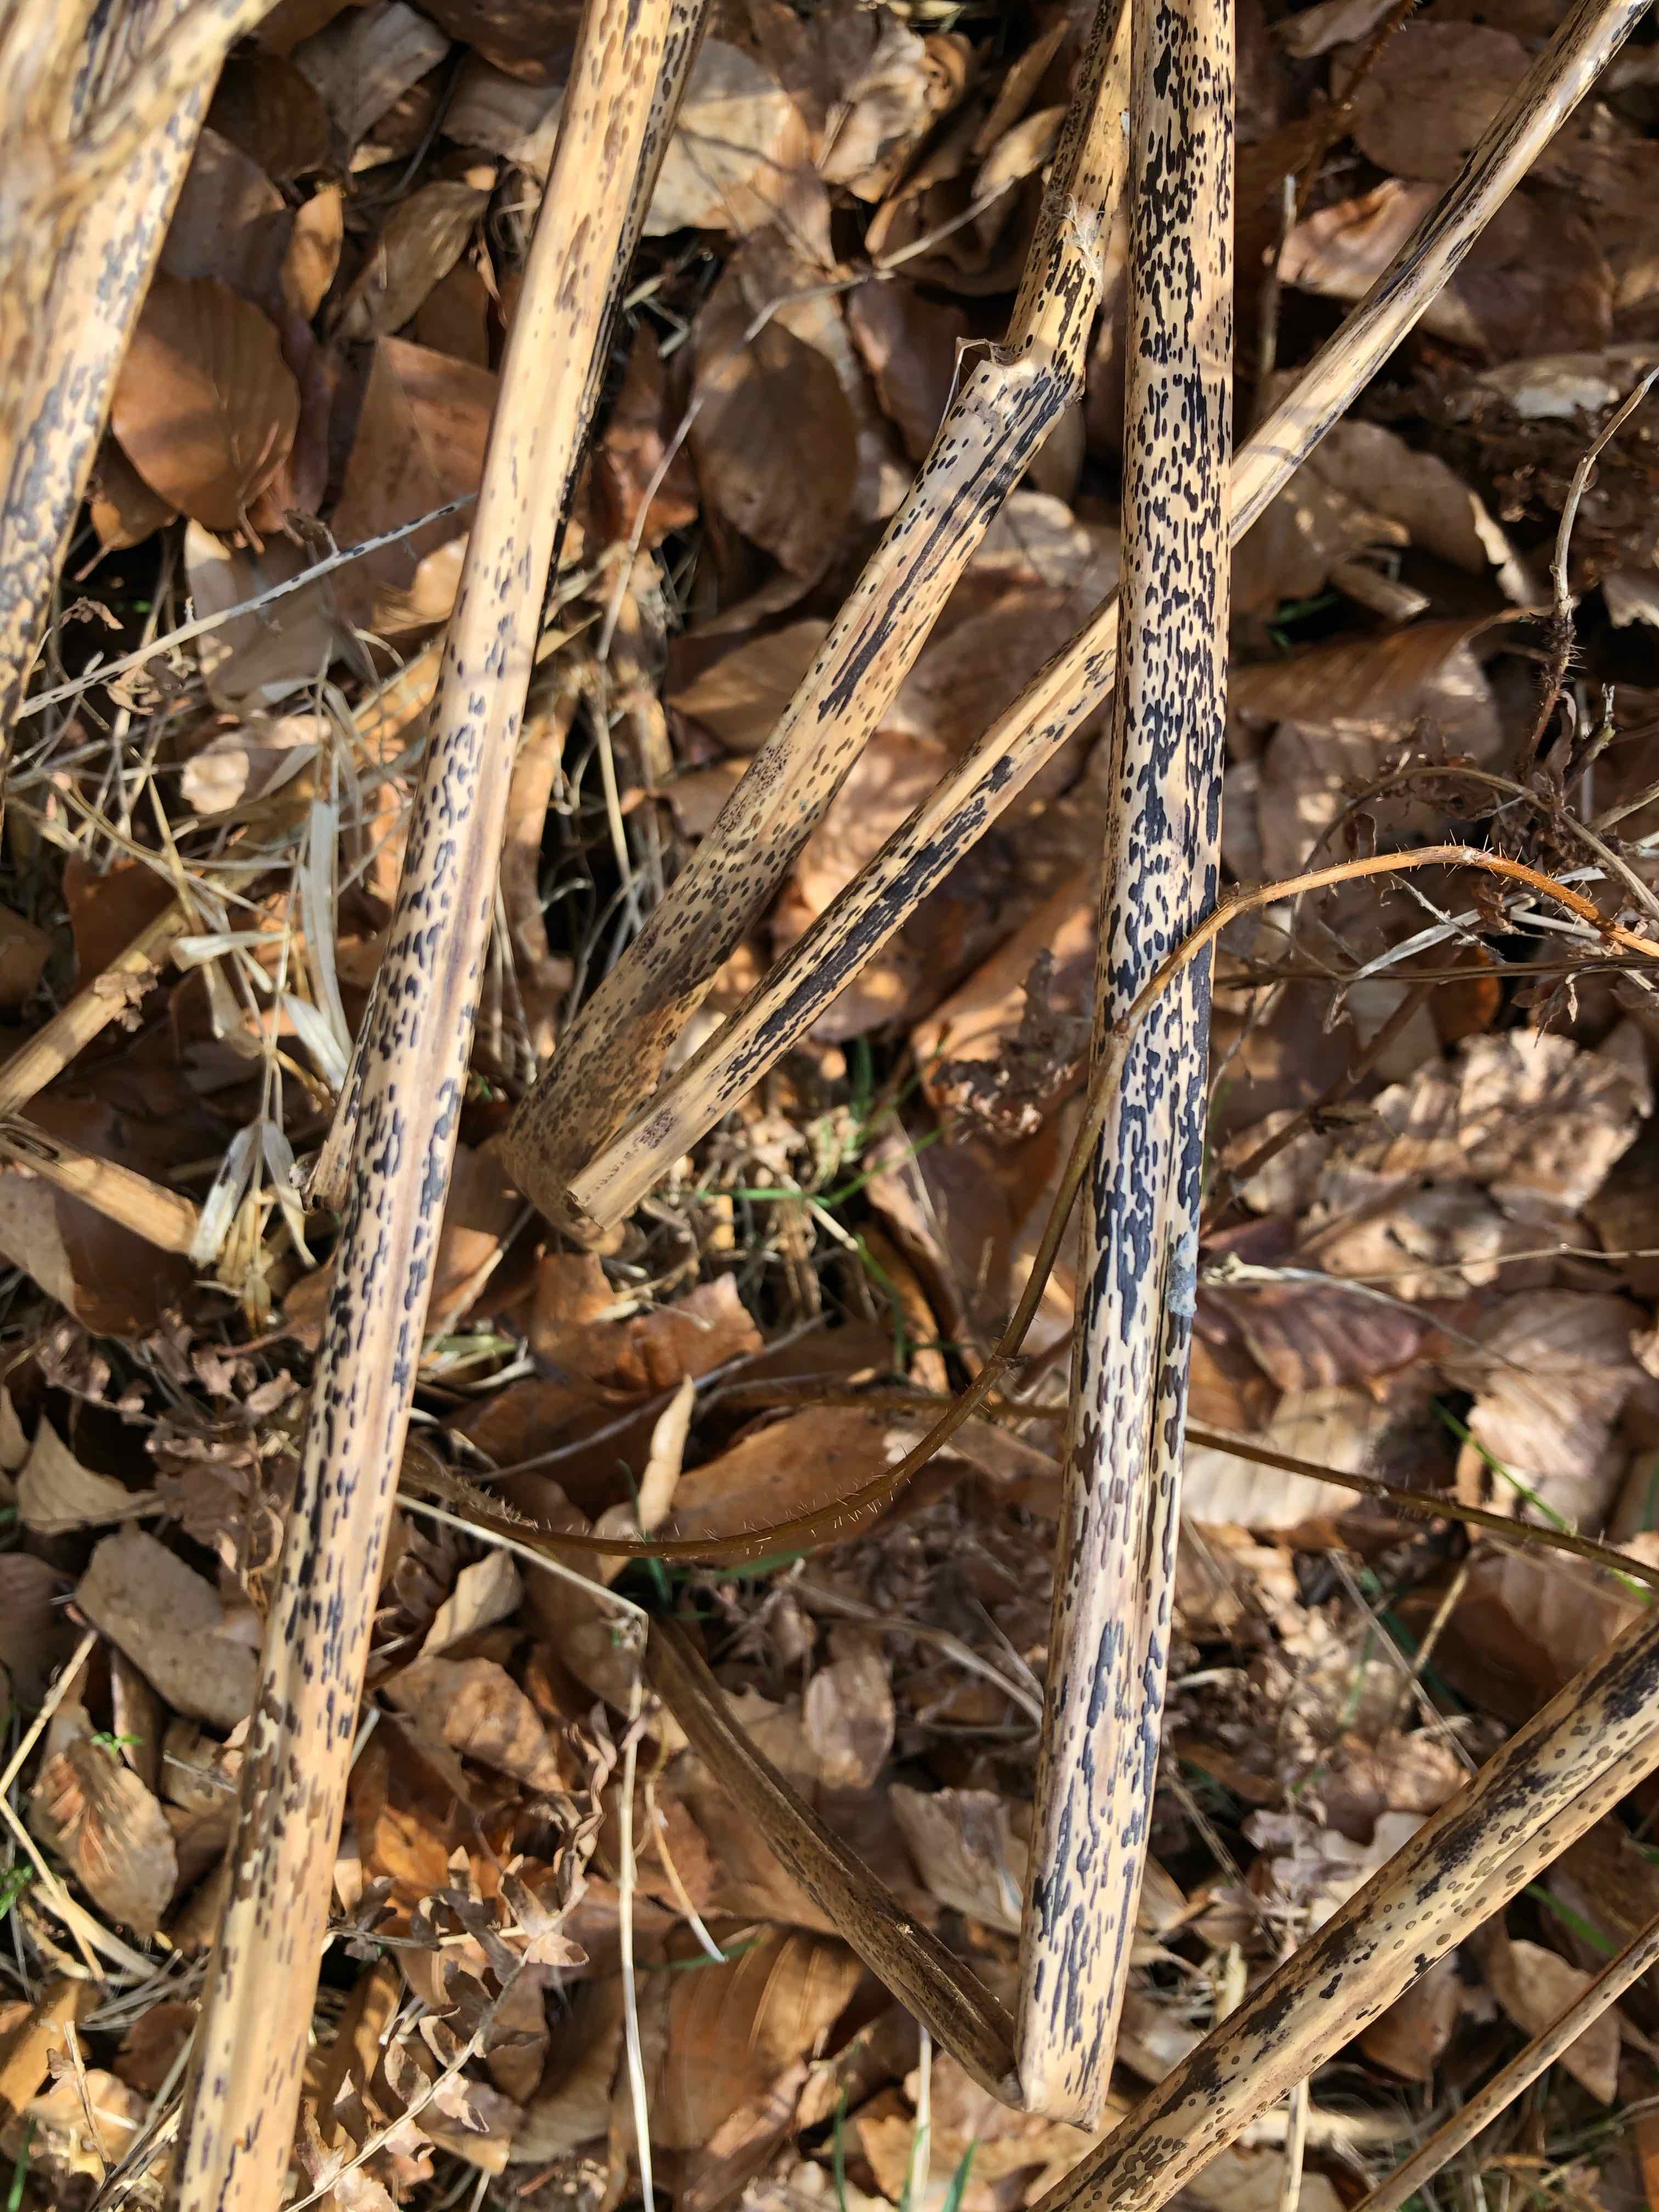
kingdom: Fungi
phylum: Ascomycota
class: Dothideomycetes
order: Pleosporales
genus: Rhopographus
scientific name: Rhopographus filicinus
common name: Bracken map
